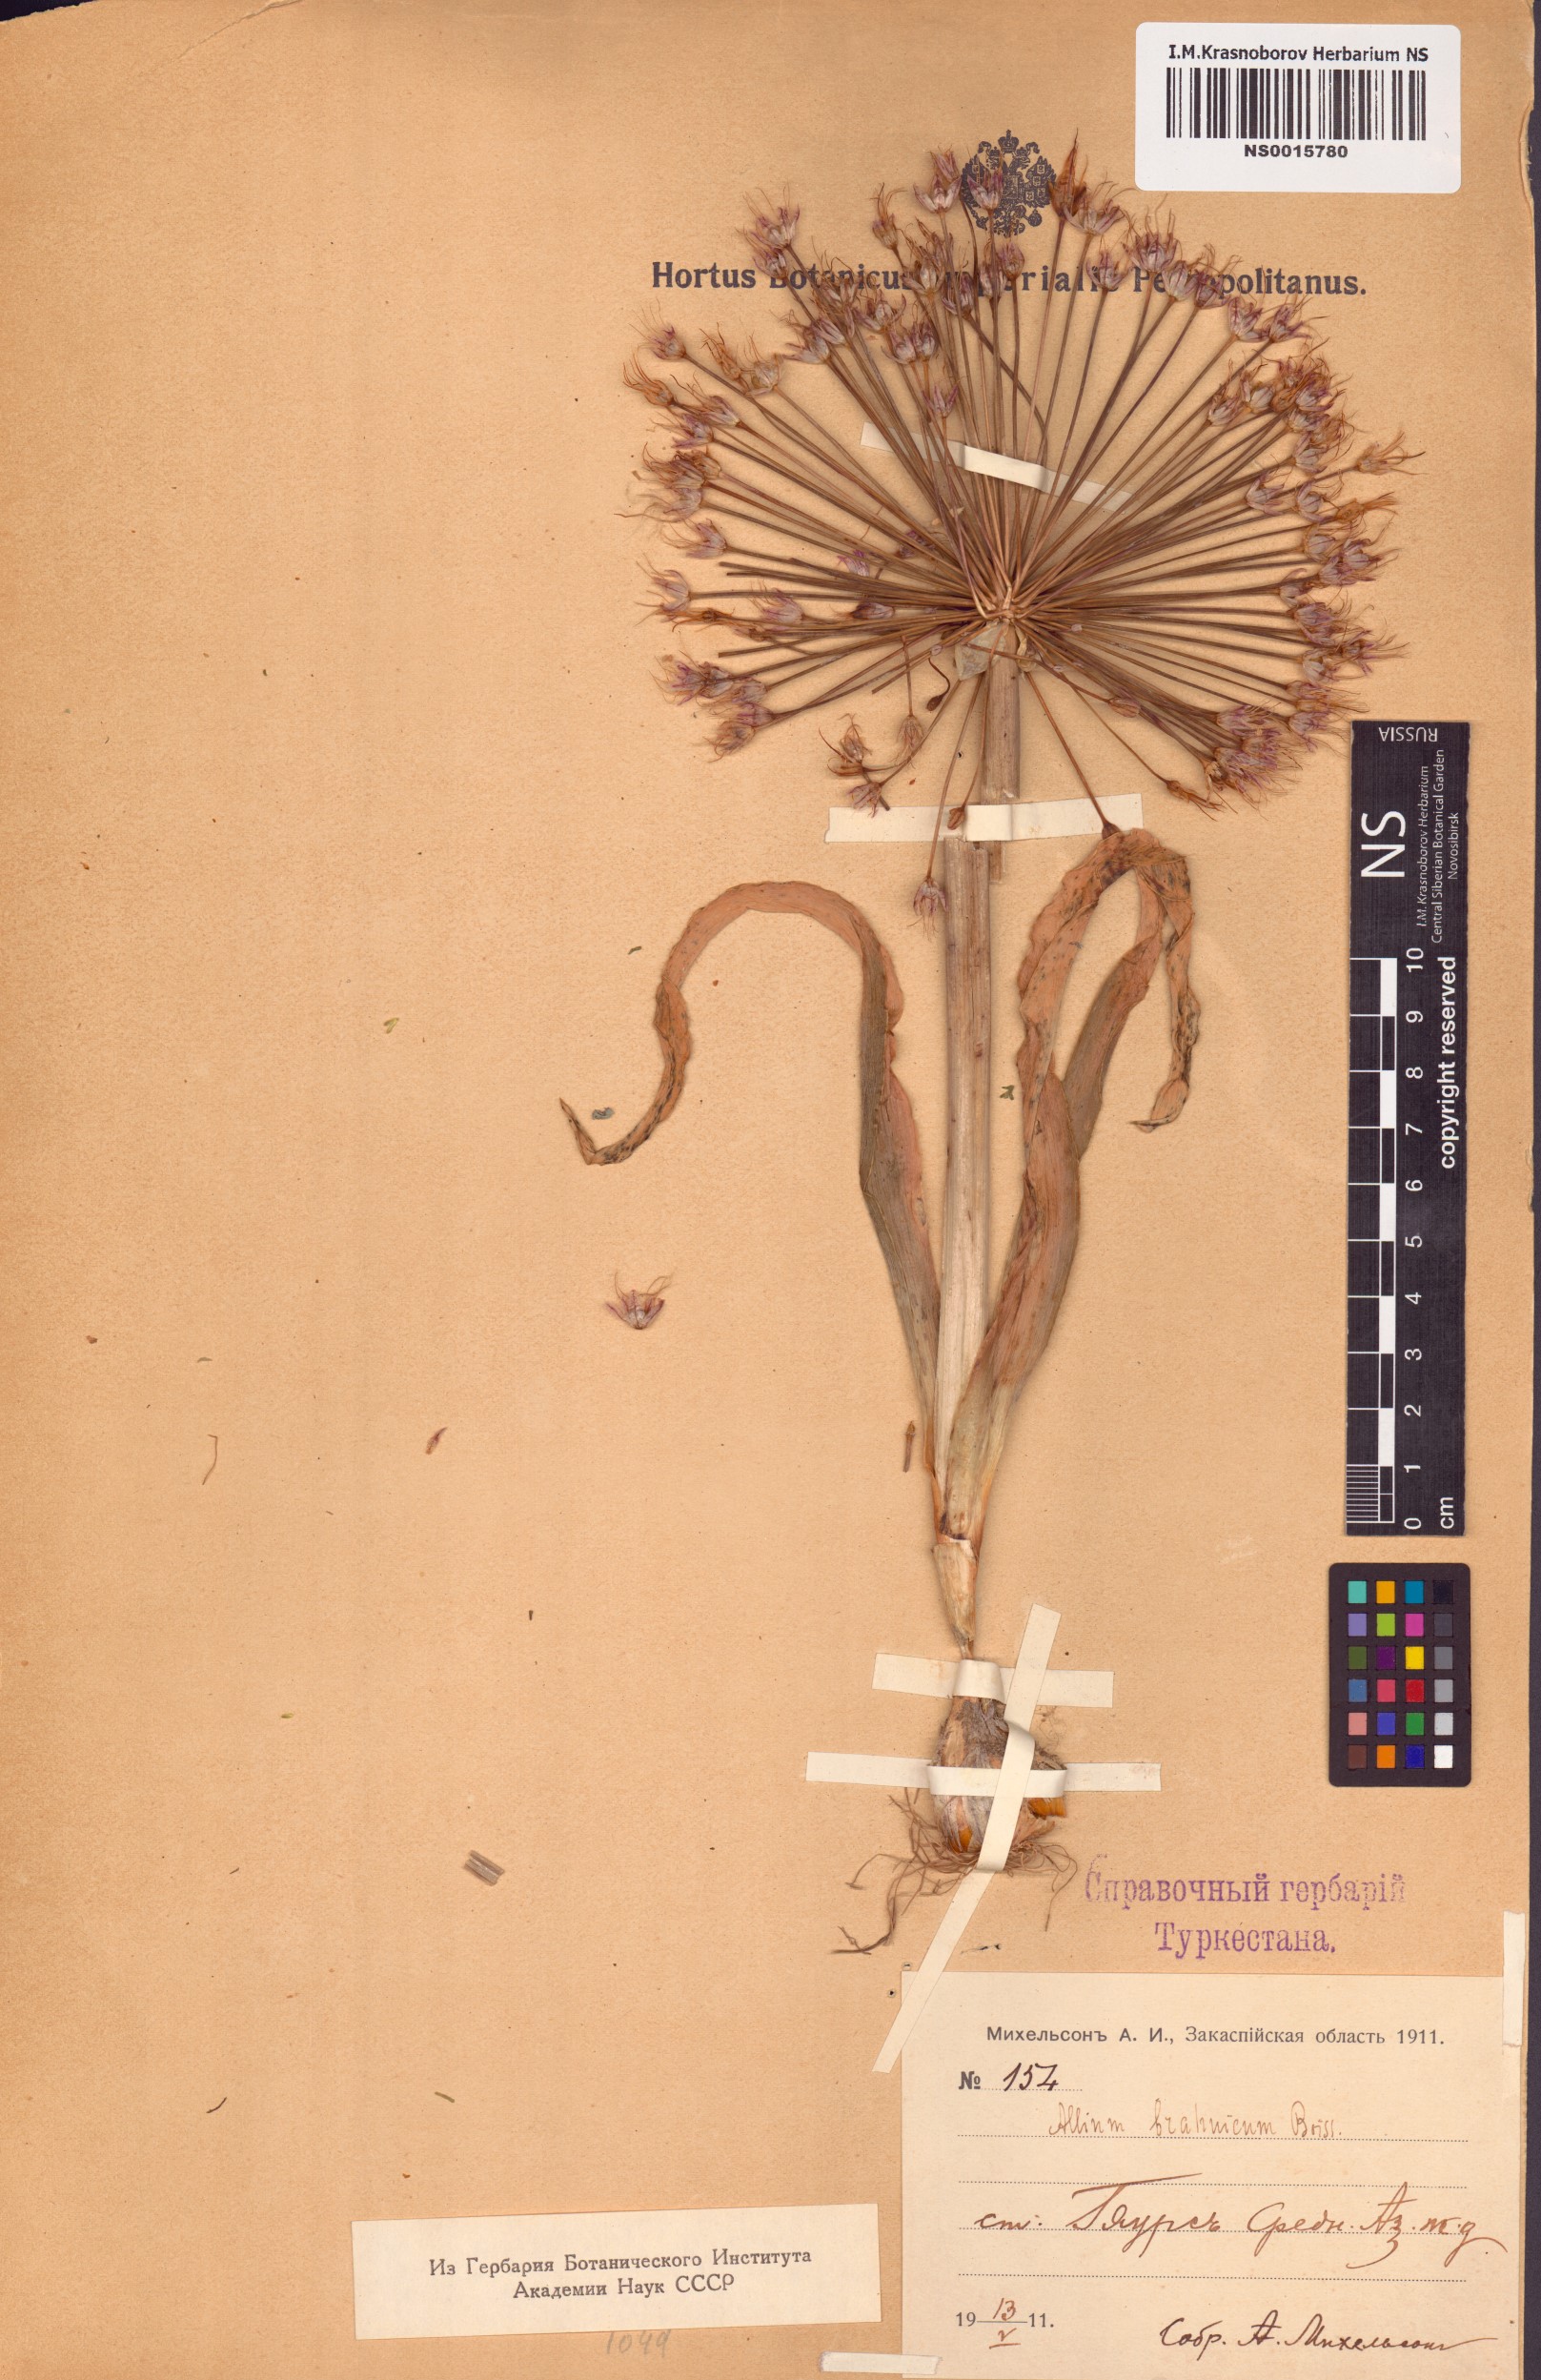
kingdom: Plantae
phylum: Tracheophyta
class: Liliopsida
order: Asparagales
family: Amaryllidaceae
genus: Allium
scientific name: Allium caspium
